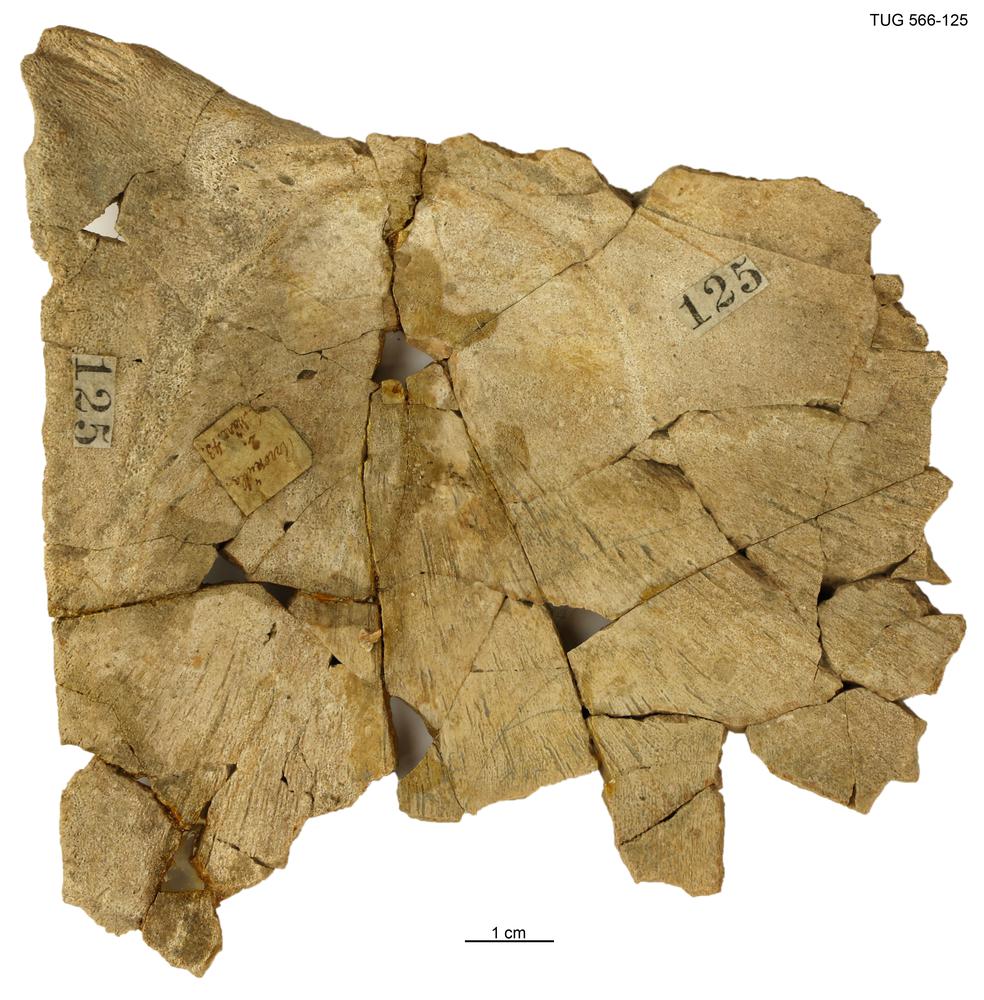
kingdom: Animalia
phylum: Chordata
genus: Homosteus
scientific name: Homosteus latus
